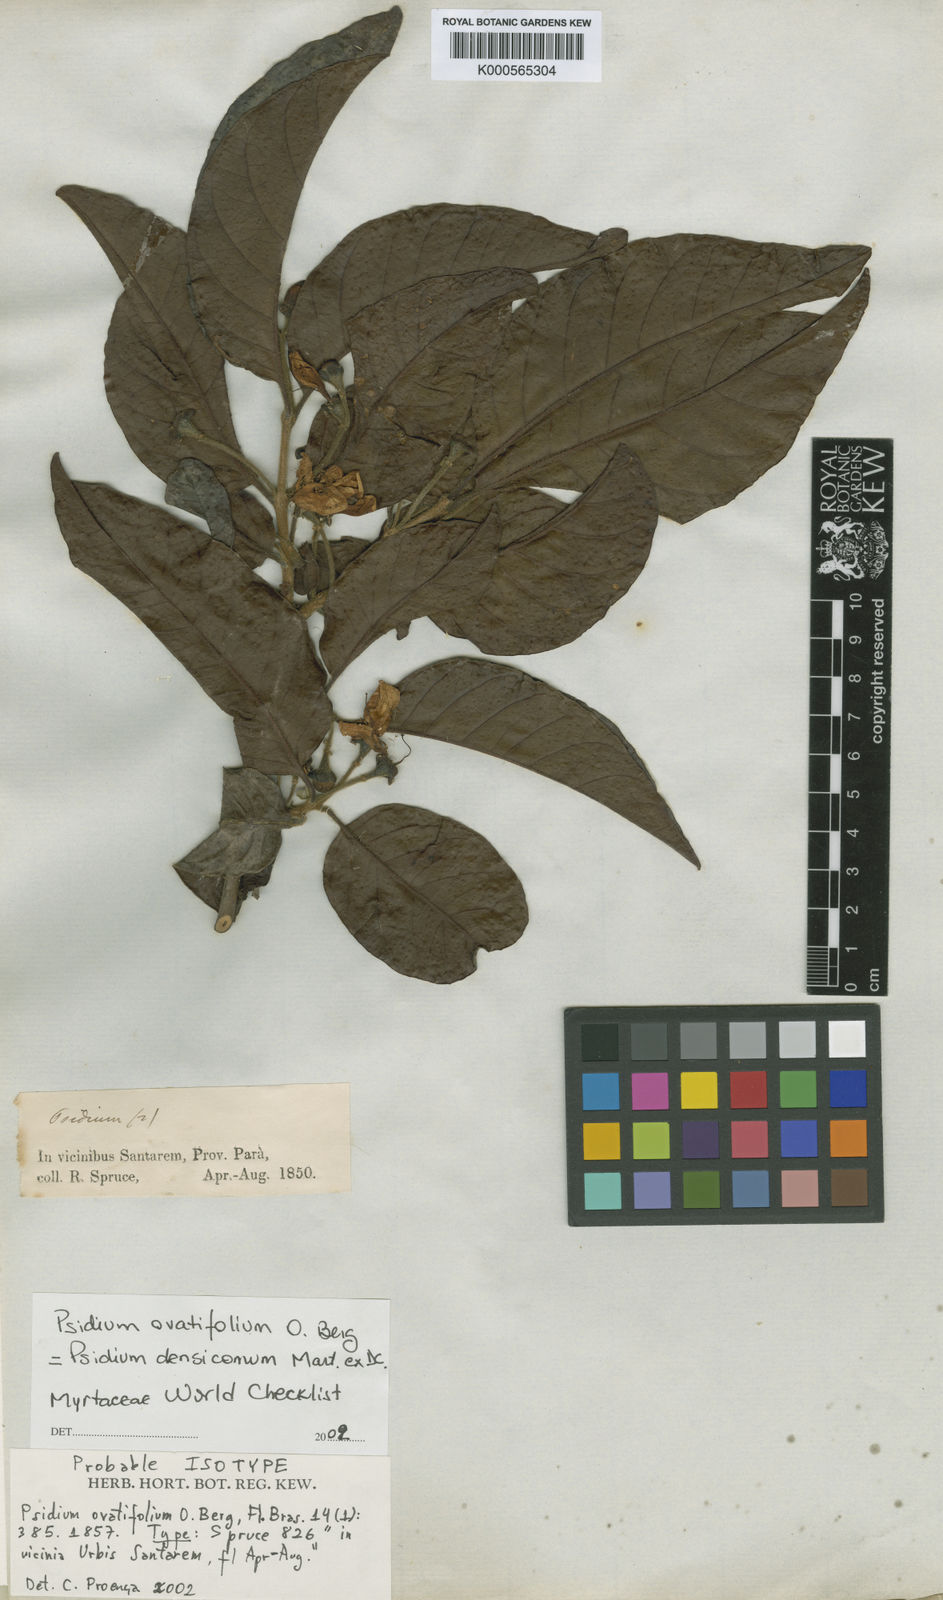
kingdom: Plantae
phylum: Tracheophyta
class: Magnoliopsida
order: Myrtales
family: Myrtaceae
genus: Psidium
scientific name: Psidium densicomum
